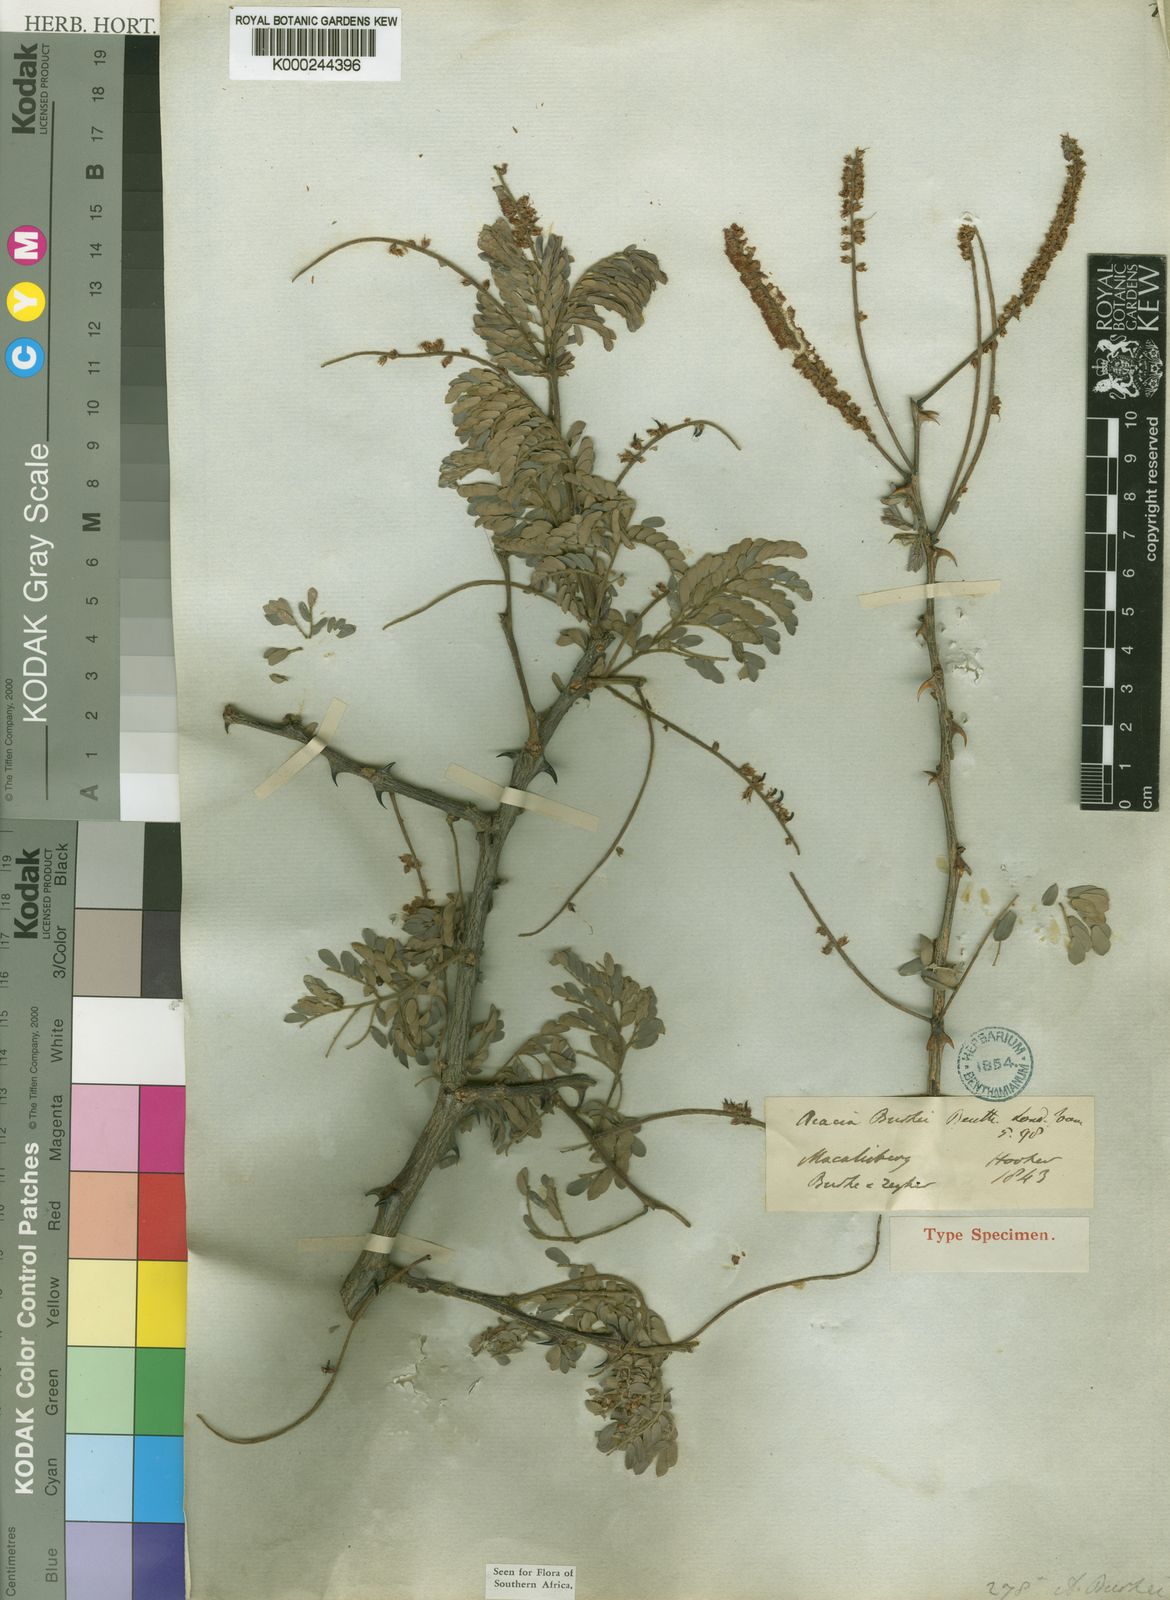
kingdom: Plantae
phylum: Tracheophyta
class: Magnoliopsida
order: Fabales
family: Fabaceae
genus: Senegalia
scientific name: Senegalia burkei
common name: Black monkey thorn
